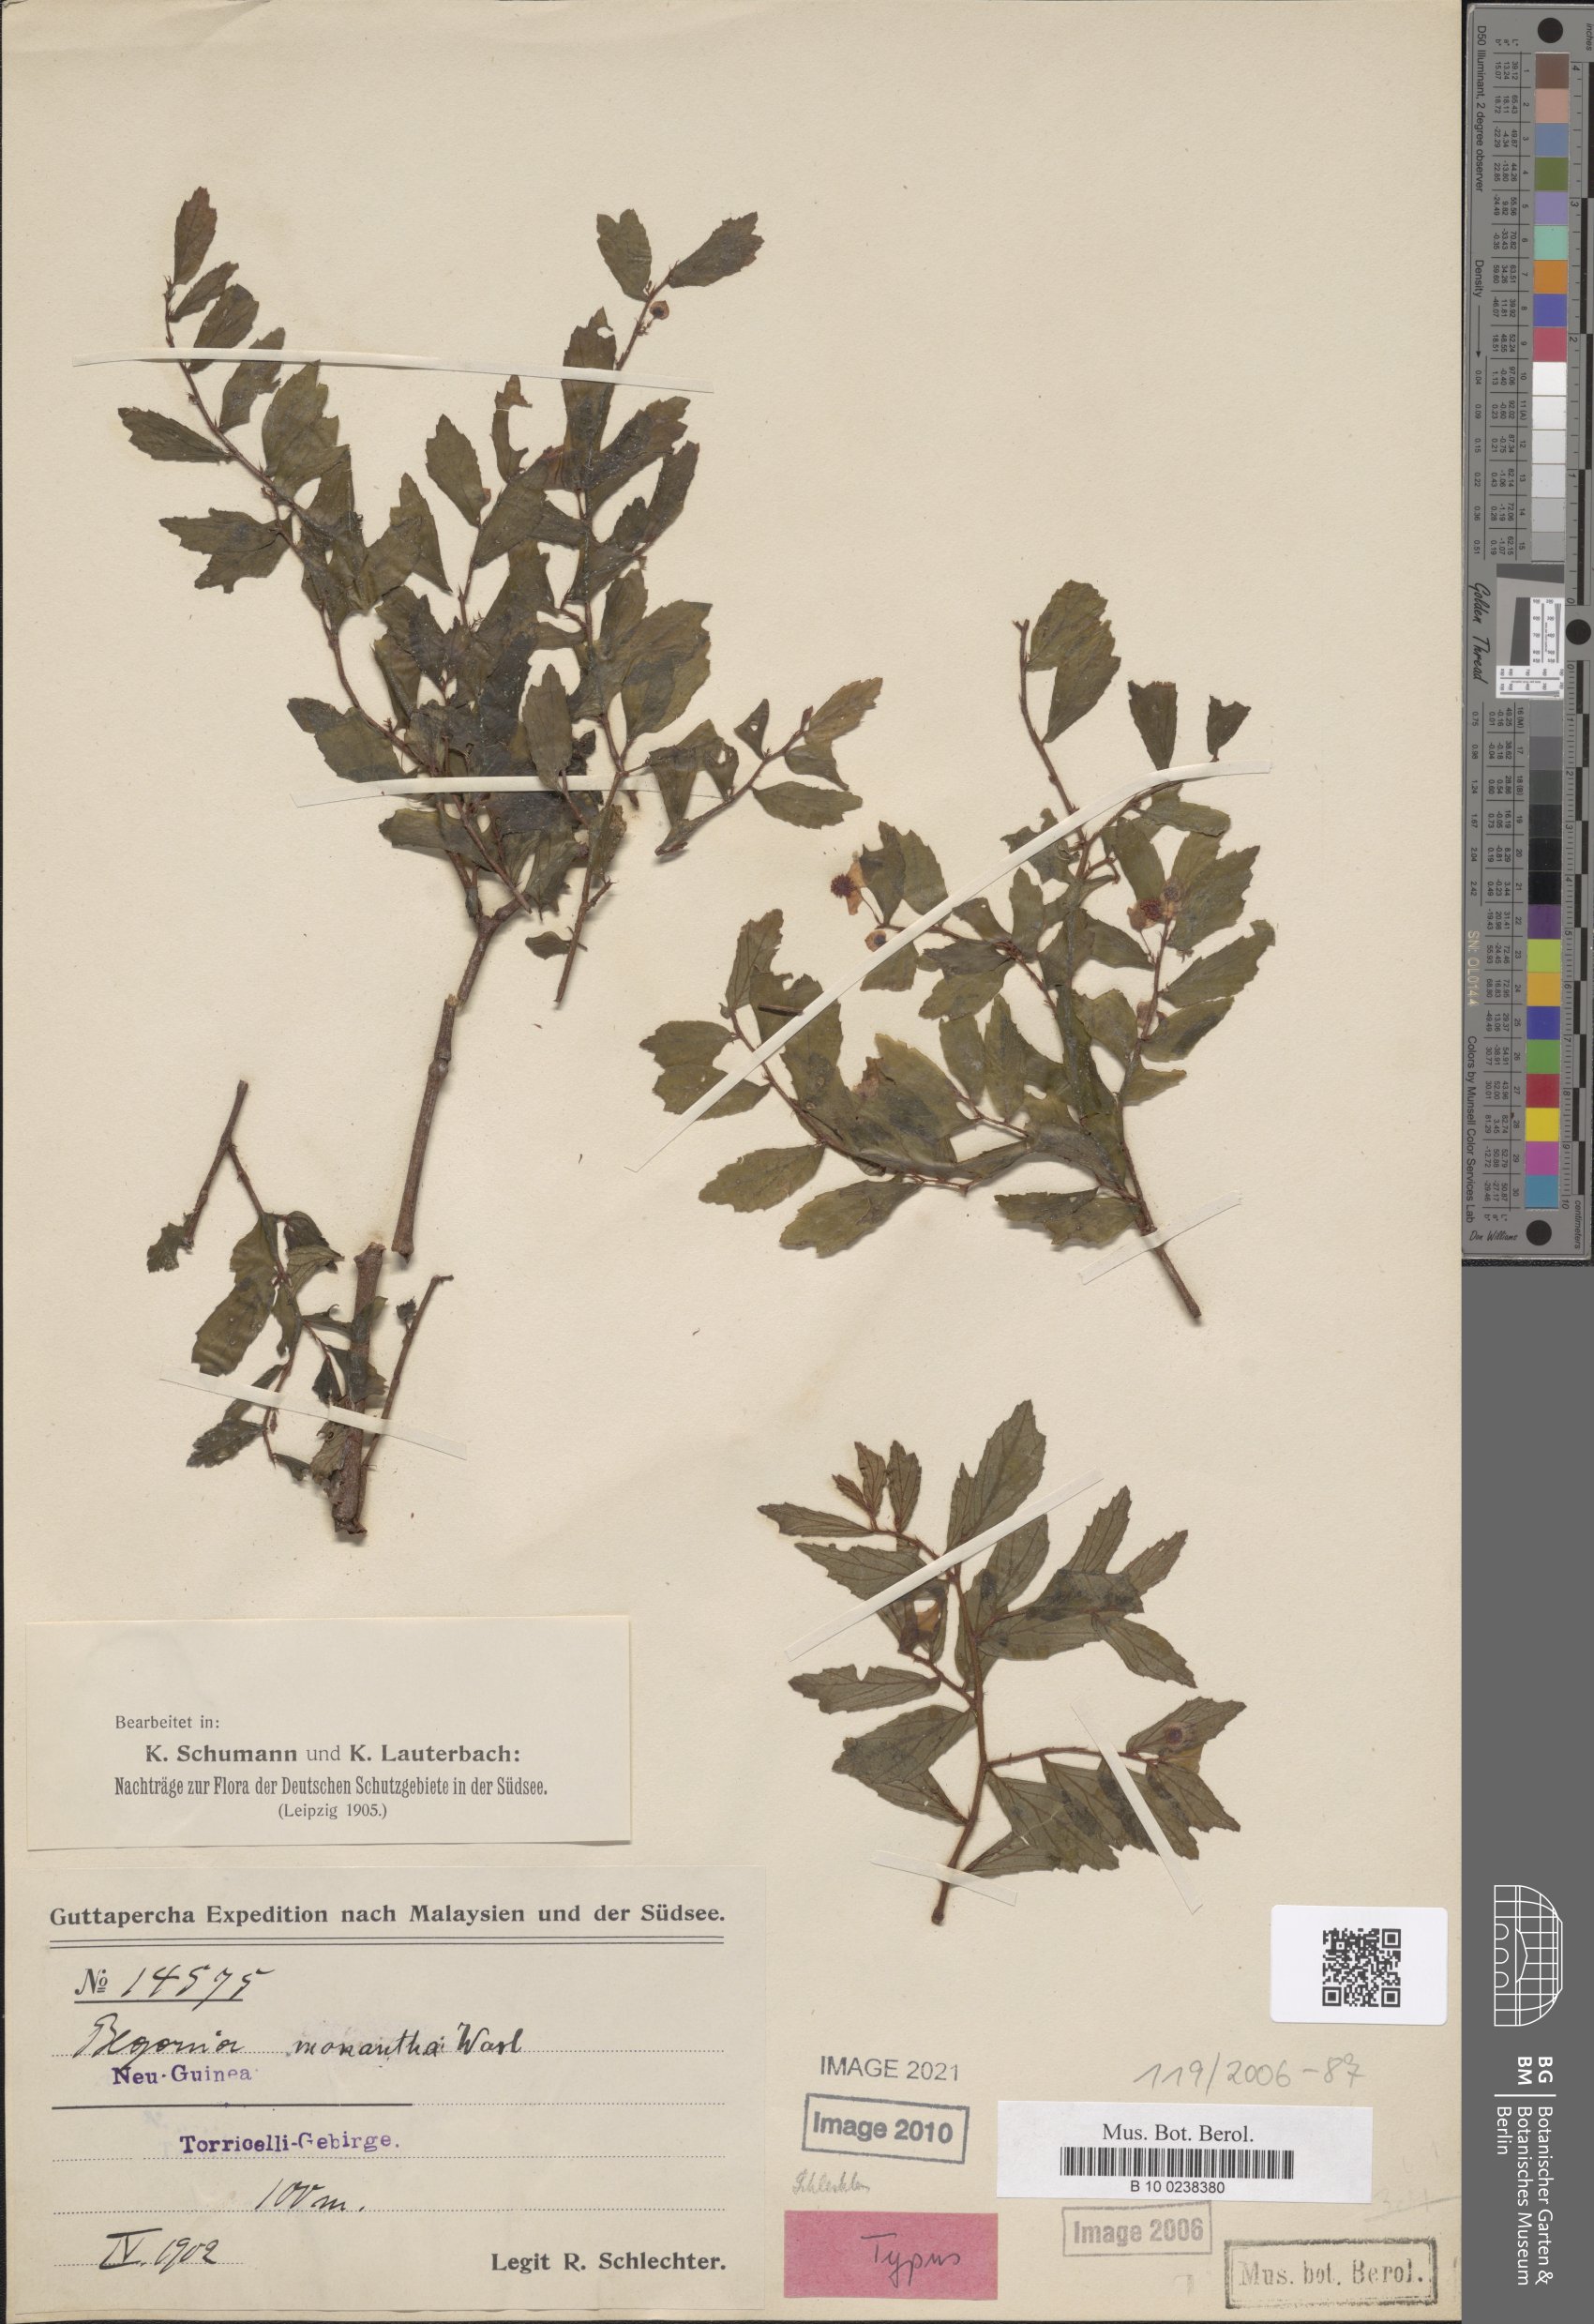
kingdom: Plantae
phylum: Tracheophyta
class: Magnoliopsida
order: Cucurbitales
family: Begoniaceae
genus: Begonia
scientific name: Begonia monantha
